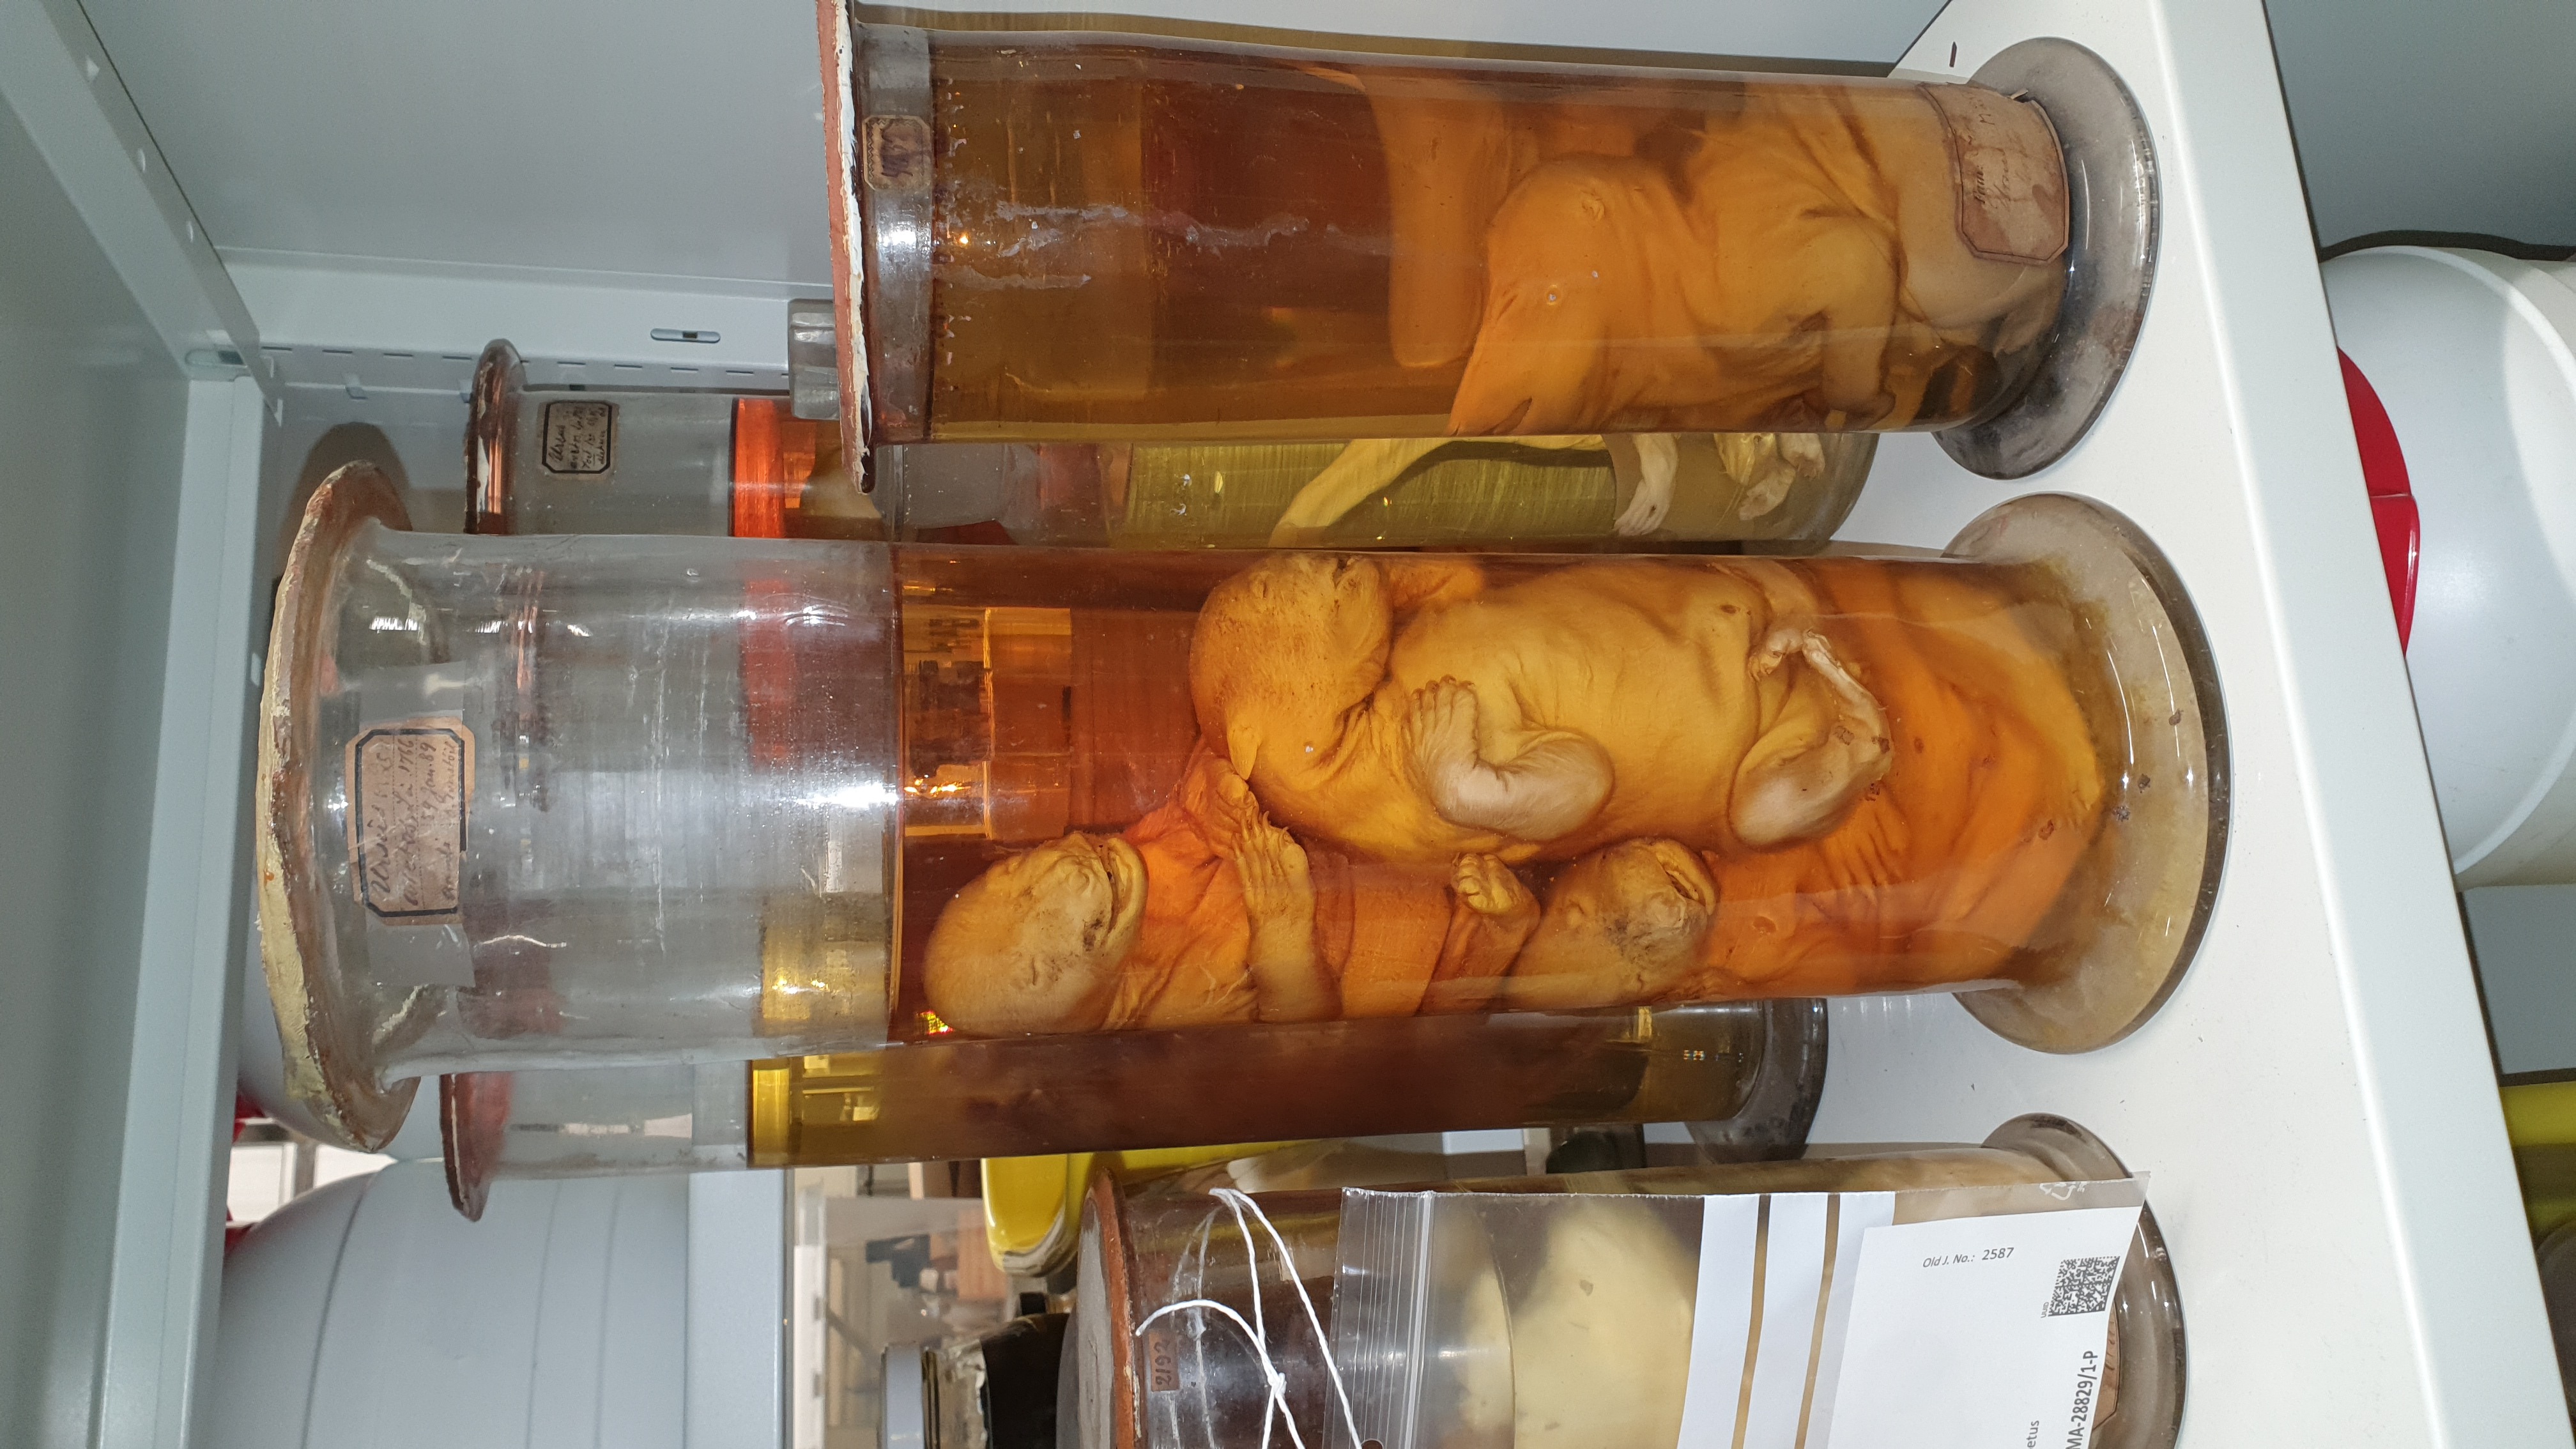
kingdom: Animalia
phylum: Chordata
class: Mammalia
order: Carnivora
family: Ursidae
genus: Ursus
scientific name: Ursus arctos
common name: Brown bear
